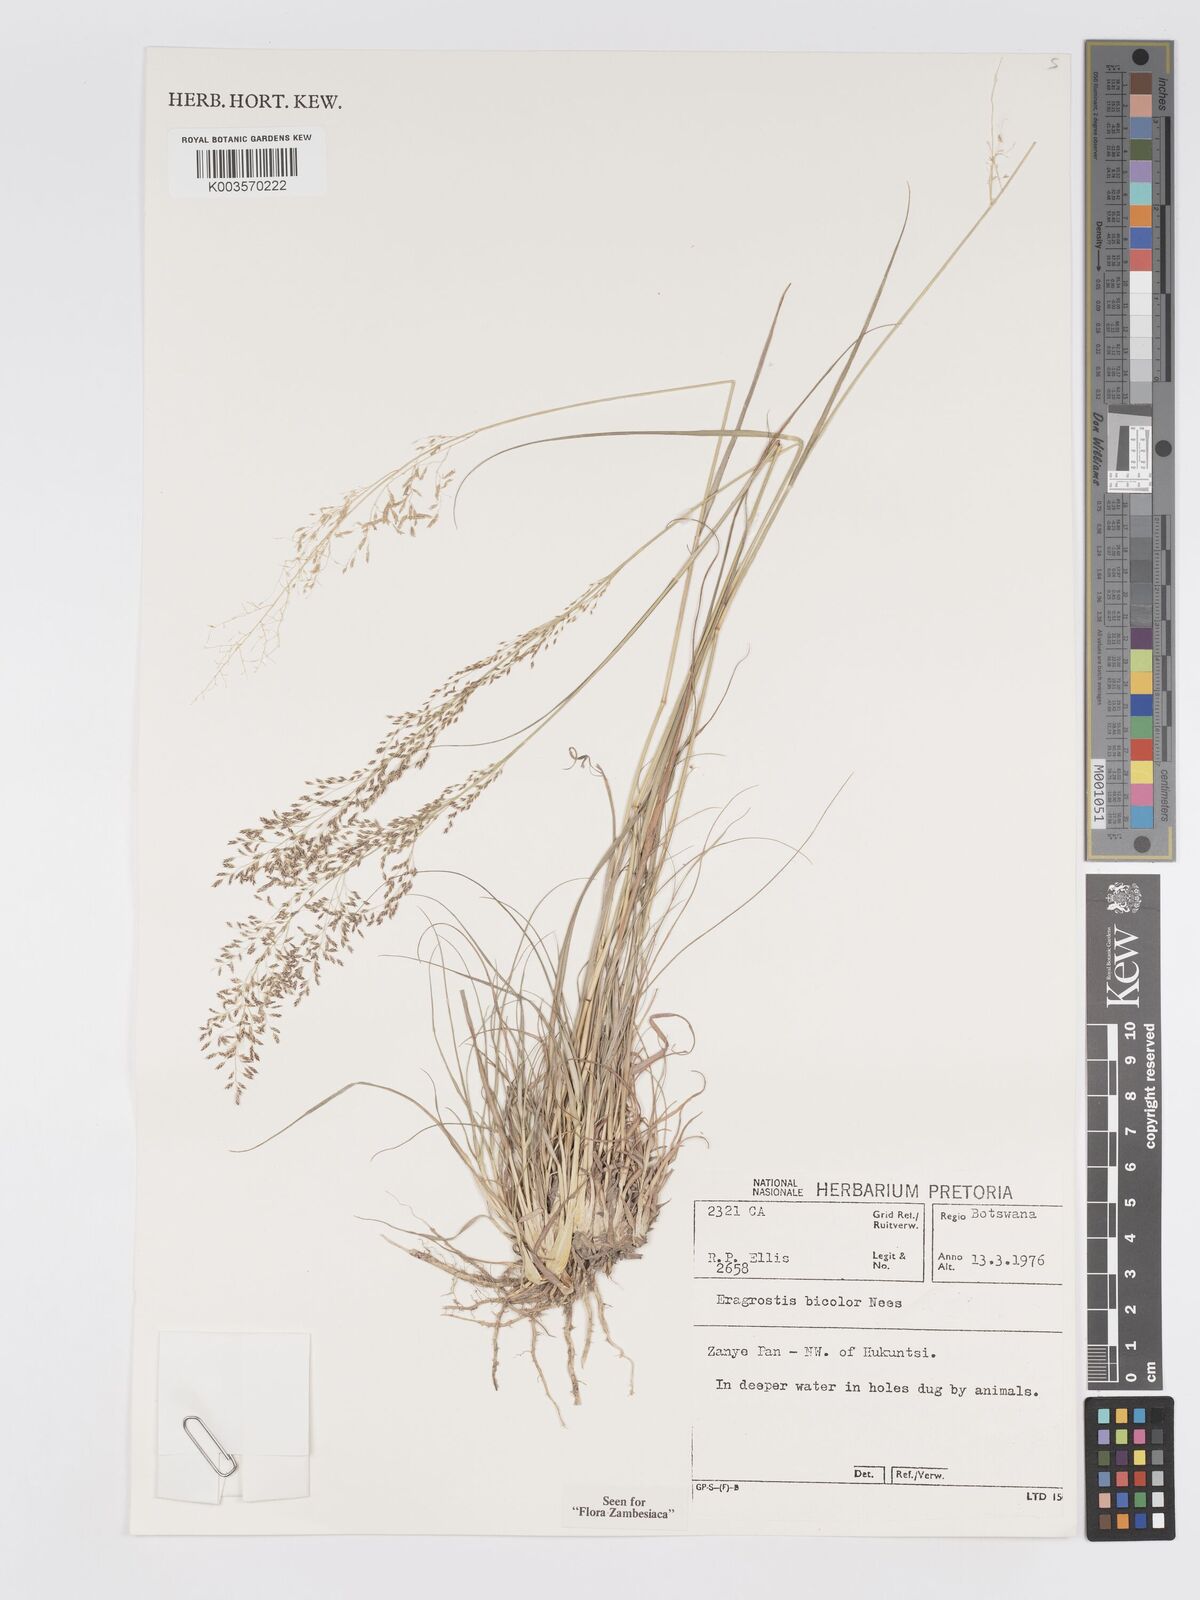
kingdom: Plantae
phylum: Tracheophyta
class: Liliopsida
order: Poales
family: Poaceae
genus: Eragrostis
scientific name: Eragrostis bicolor
